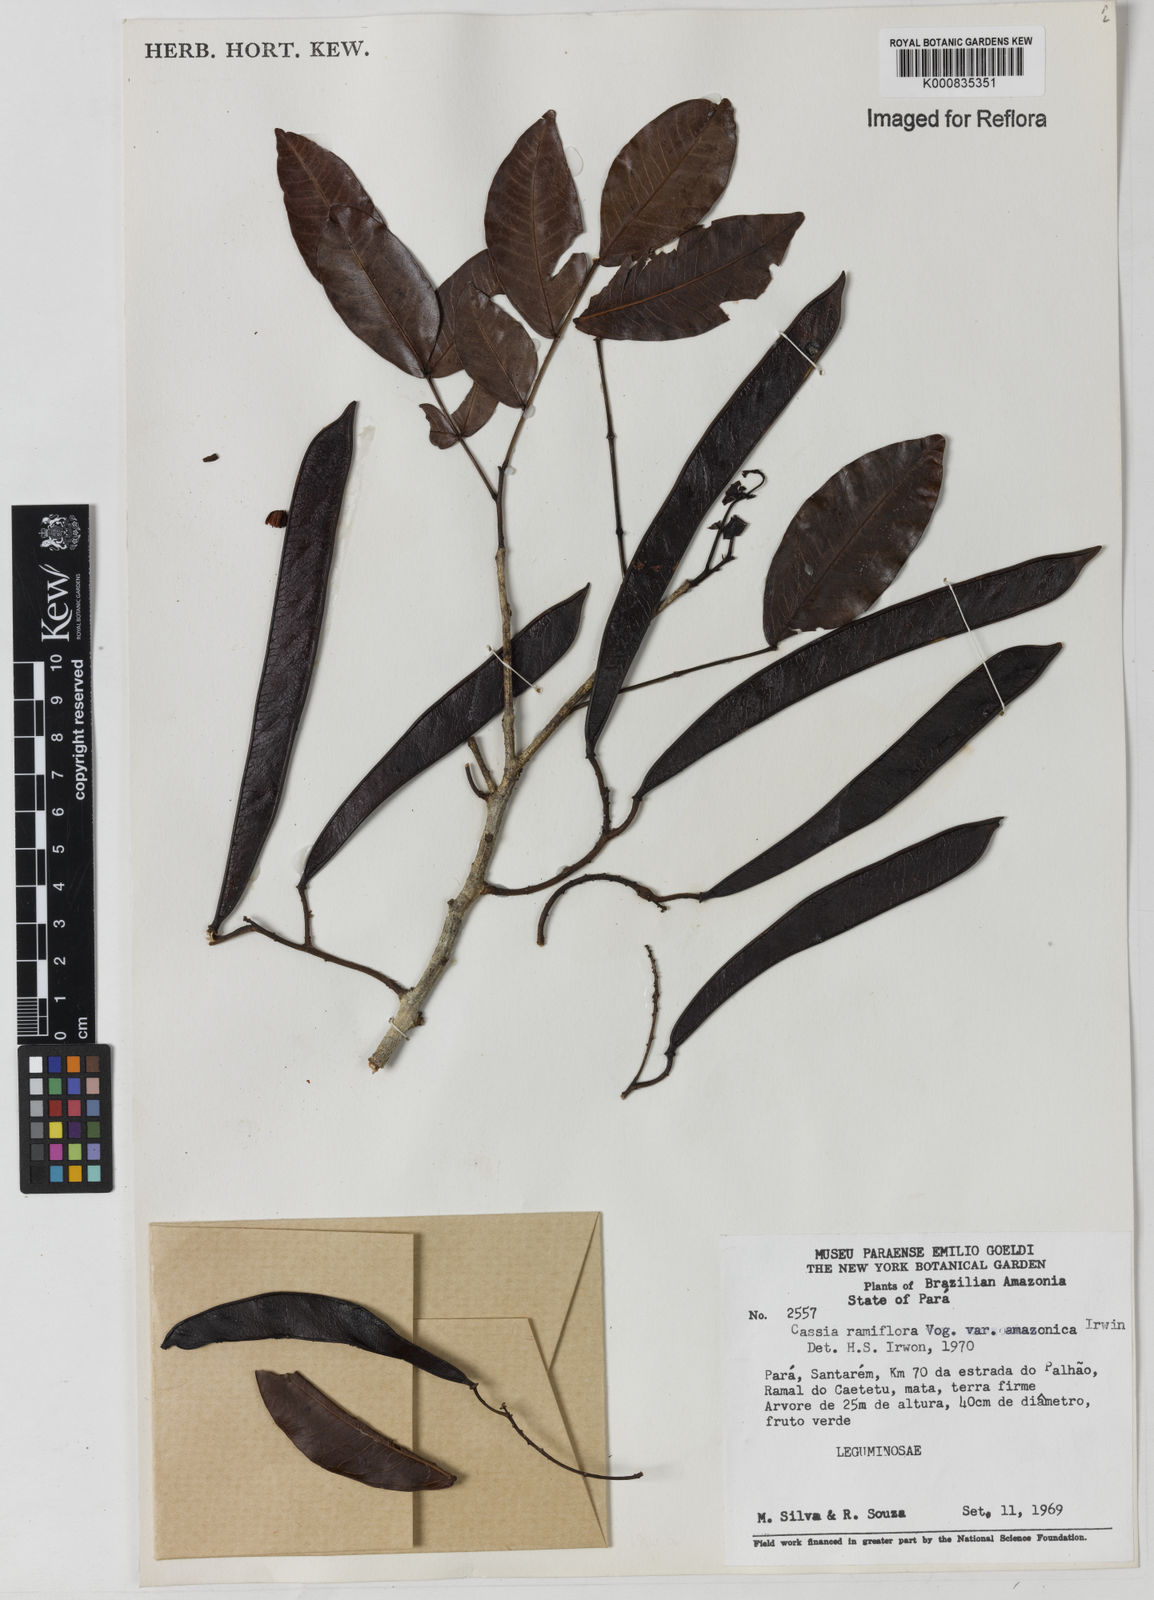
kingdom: Plantae
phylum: Tracheophyta
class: Magnoliopsida
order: Fabales
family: Fabaceae
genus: Chamaecrista
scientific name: Chamaecrista ensiformis
